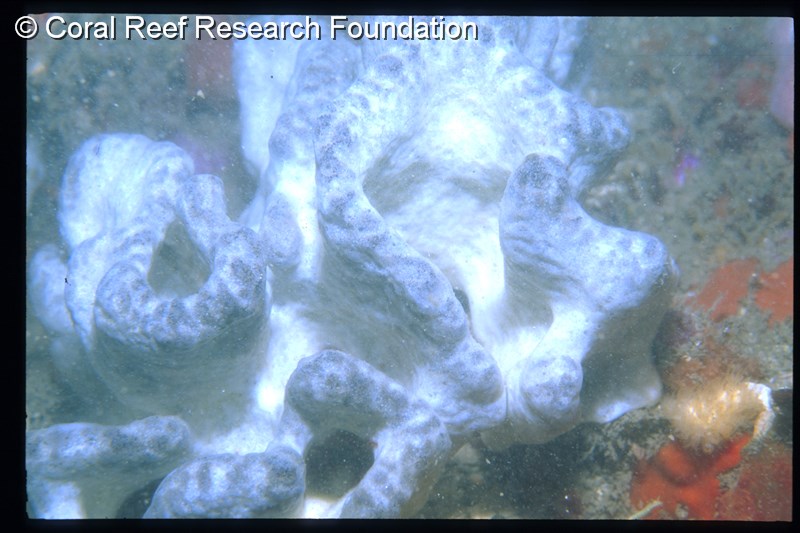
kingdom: Animalia
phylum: Chordata
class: Ascidiacea
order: Aplousobranchia
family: Didemnidae
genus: Polysyncraton
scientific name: Polysyncraton
